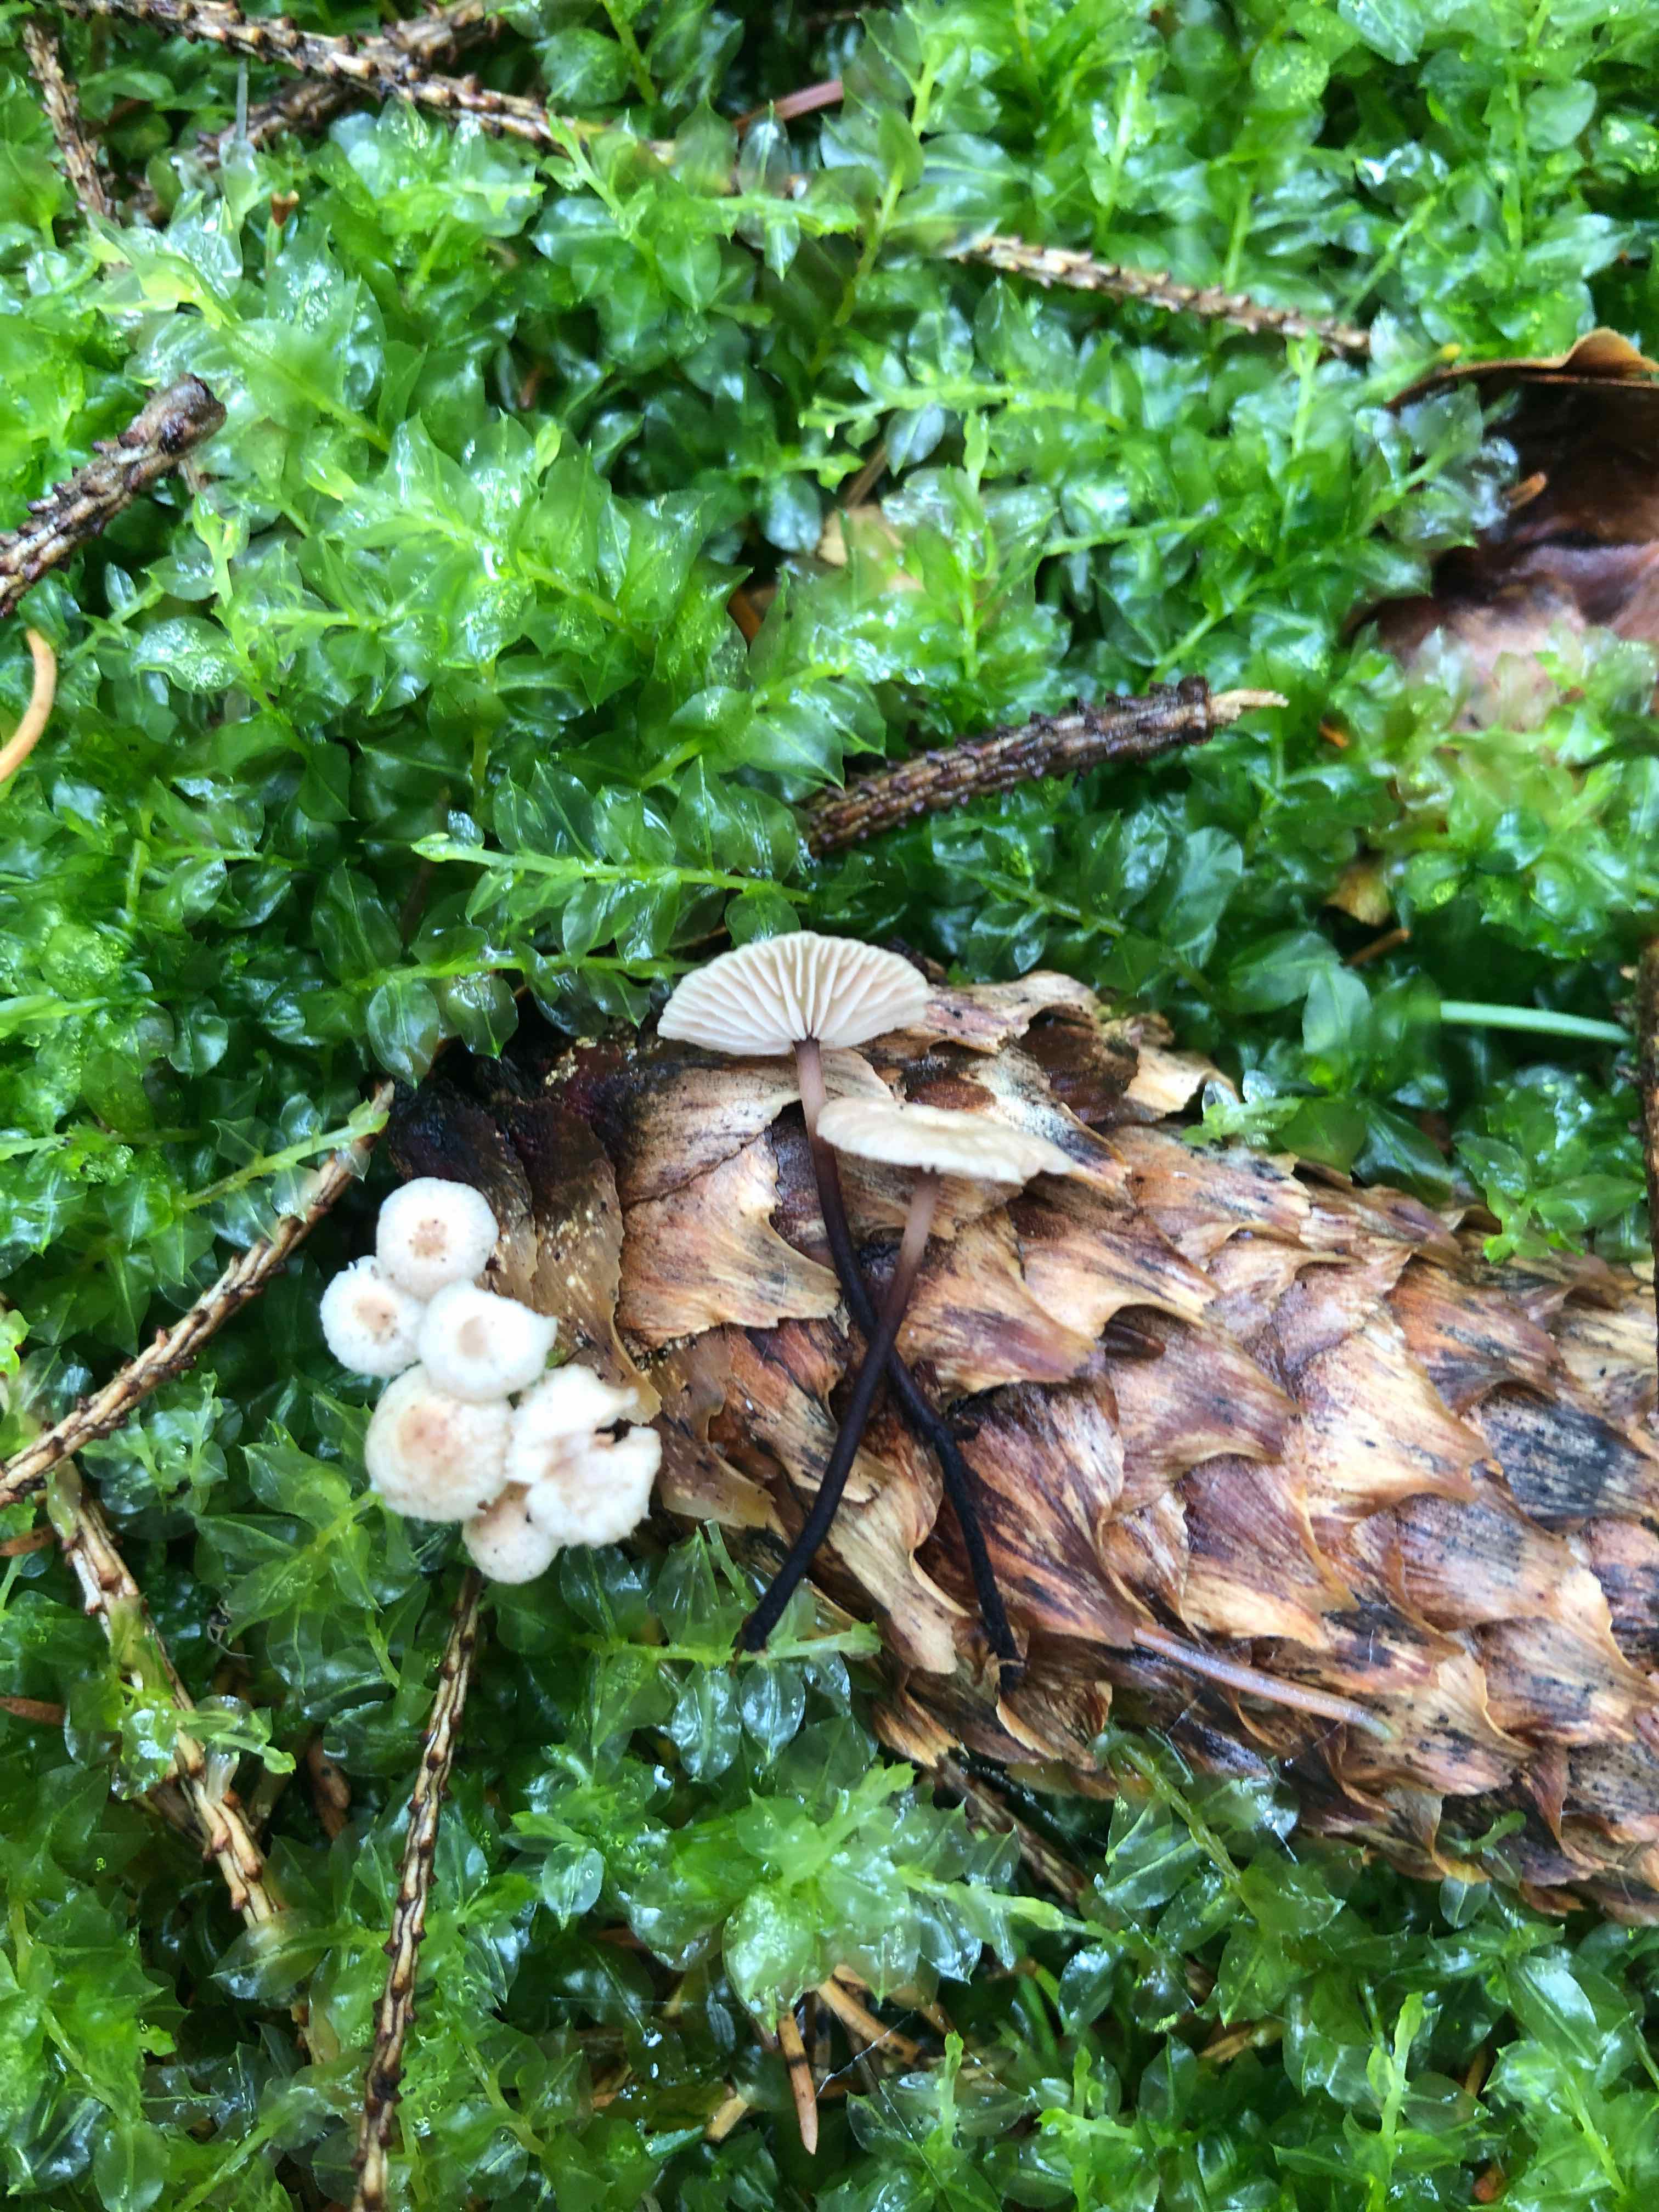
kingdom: Fungi
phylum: Basidiomycota
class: Agaricomycetes
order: Agaricales
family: Omphalotaceae
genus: Paragymnopus
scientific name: Paragymnopus perforans
